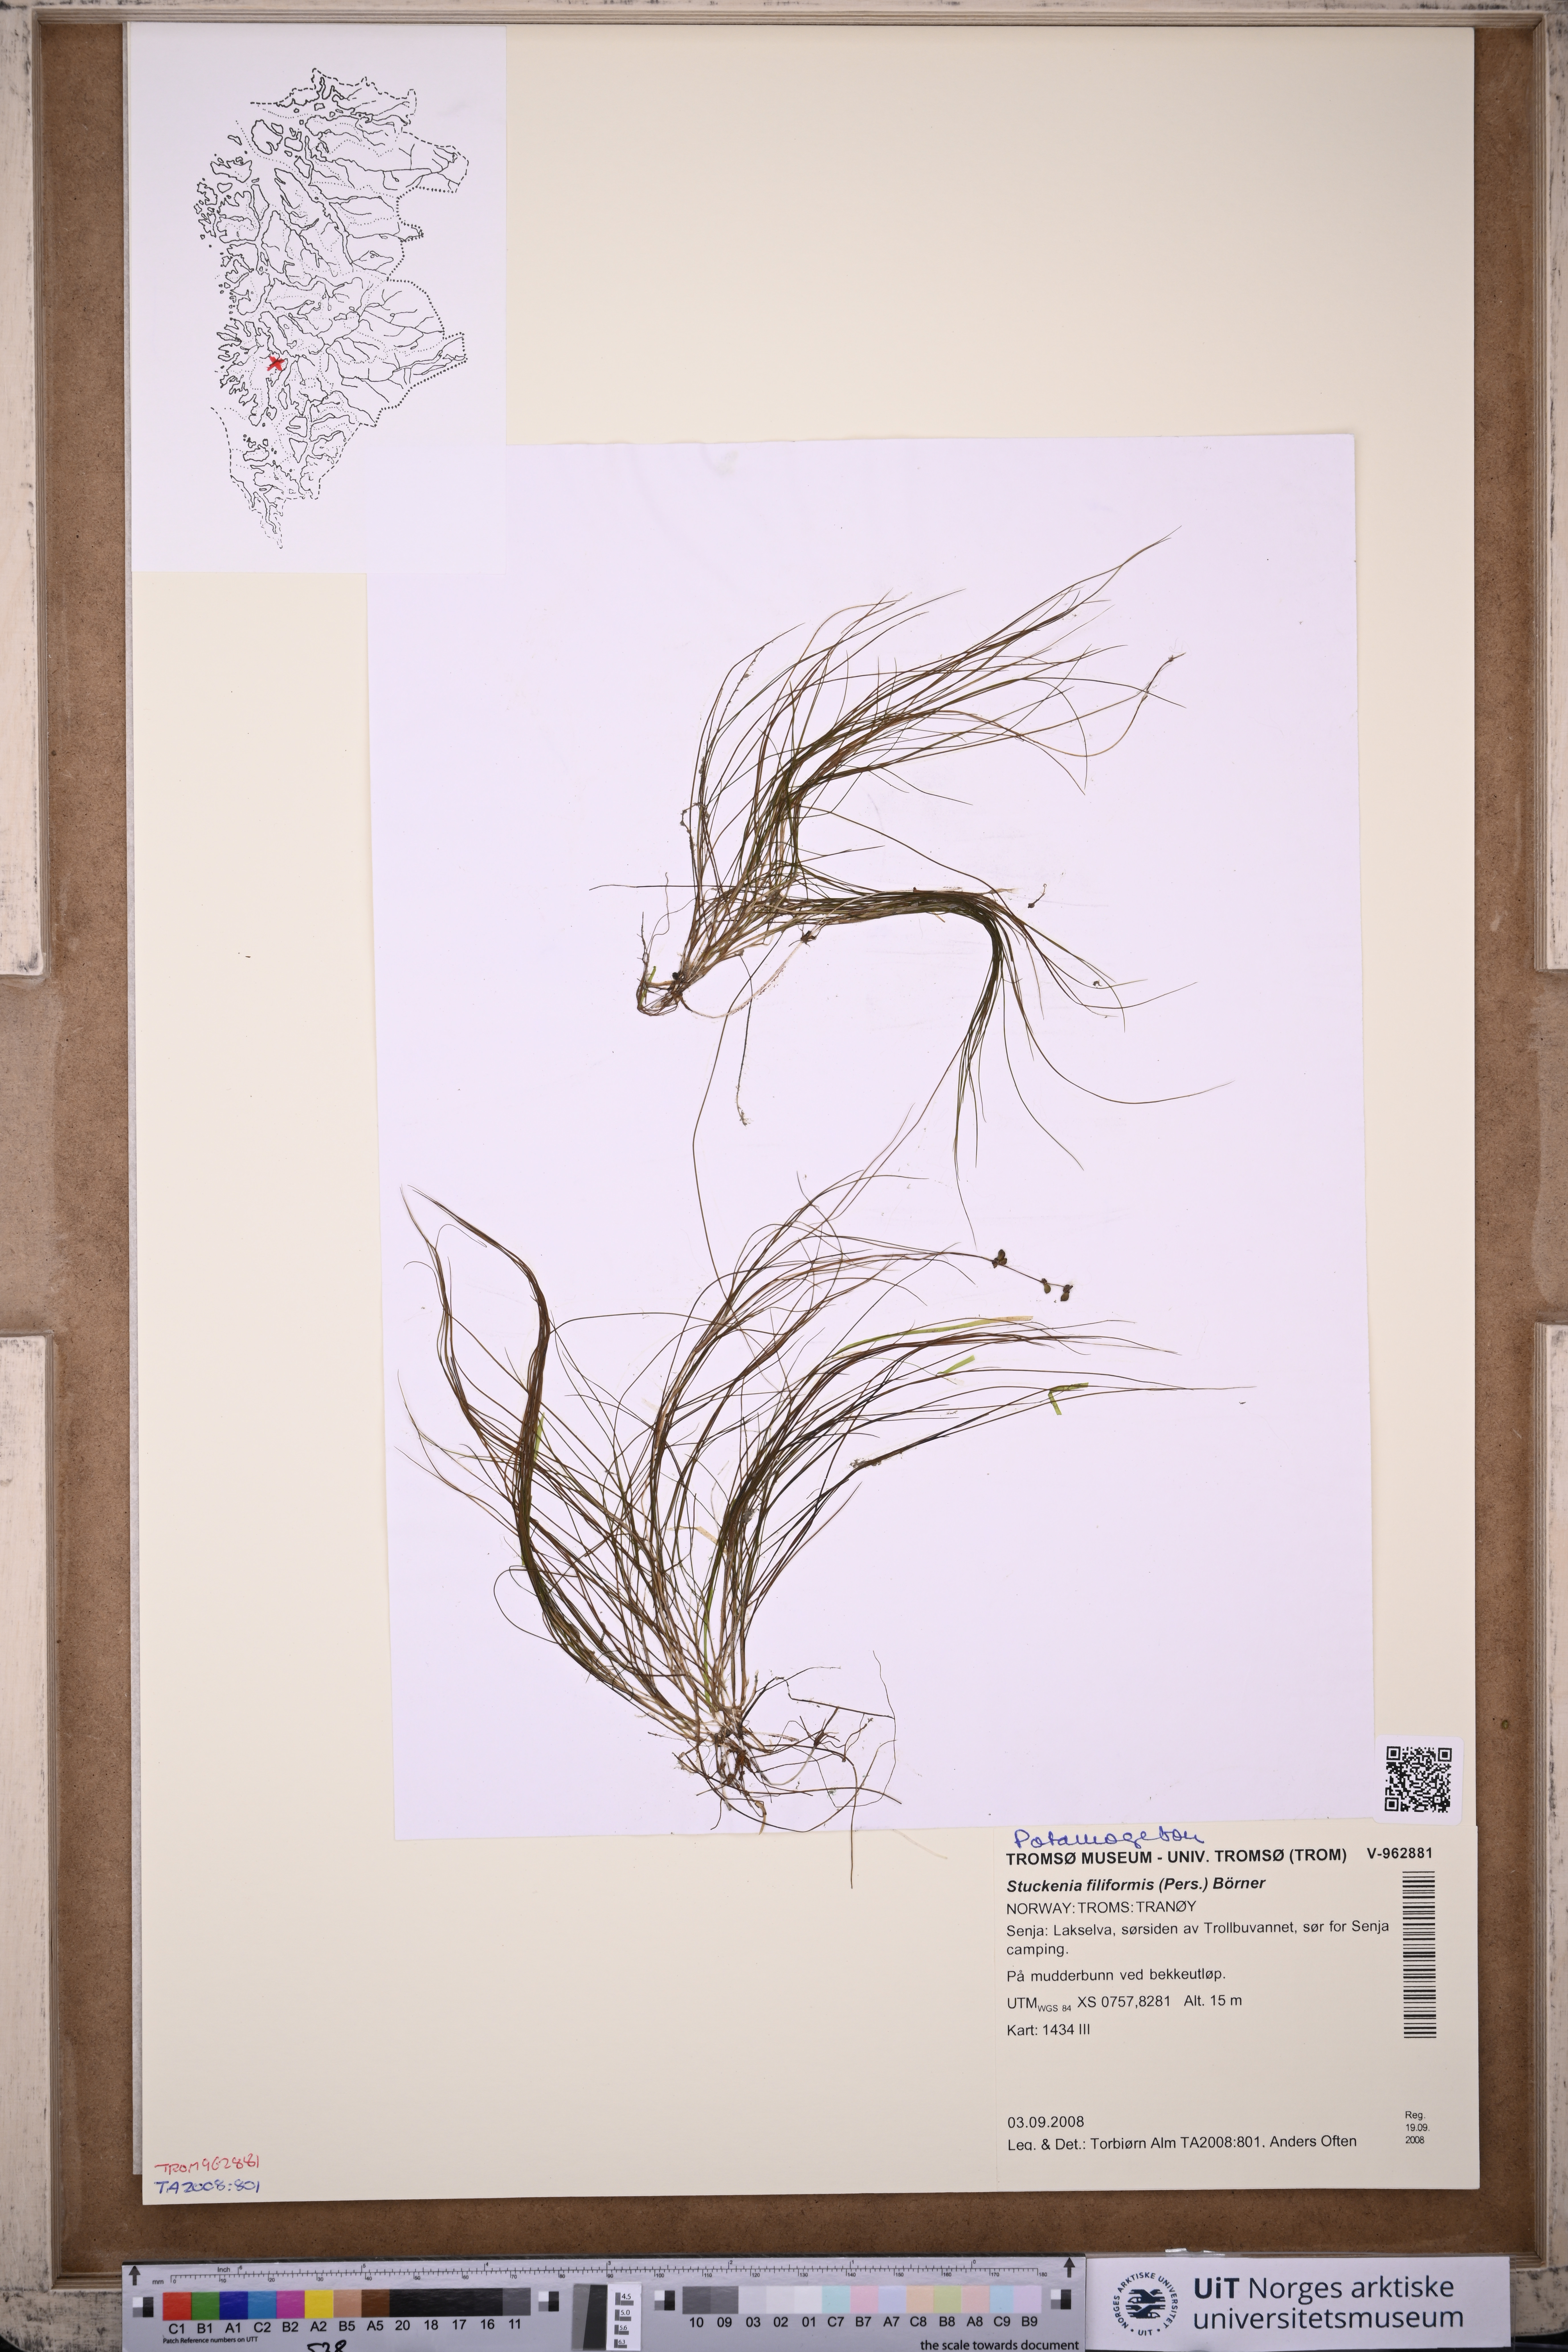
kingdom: Plantae
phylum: Tracheophyta
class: Liliopsida
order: Alismatales
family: Potamogetonaceae
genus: Stuckenia
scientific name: Stuckenia filiformis
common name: Alpine thread-leaved pondweed
